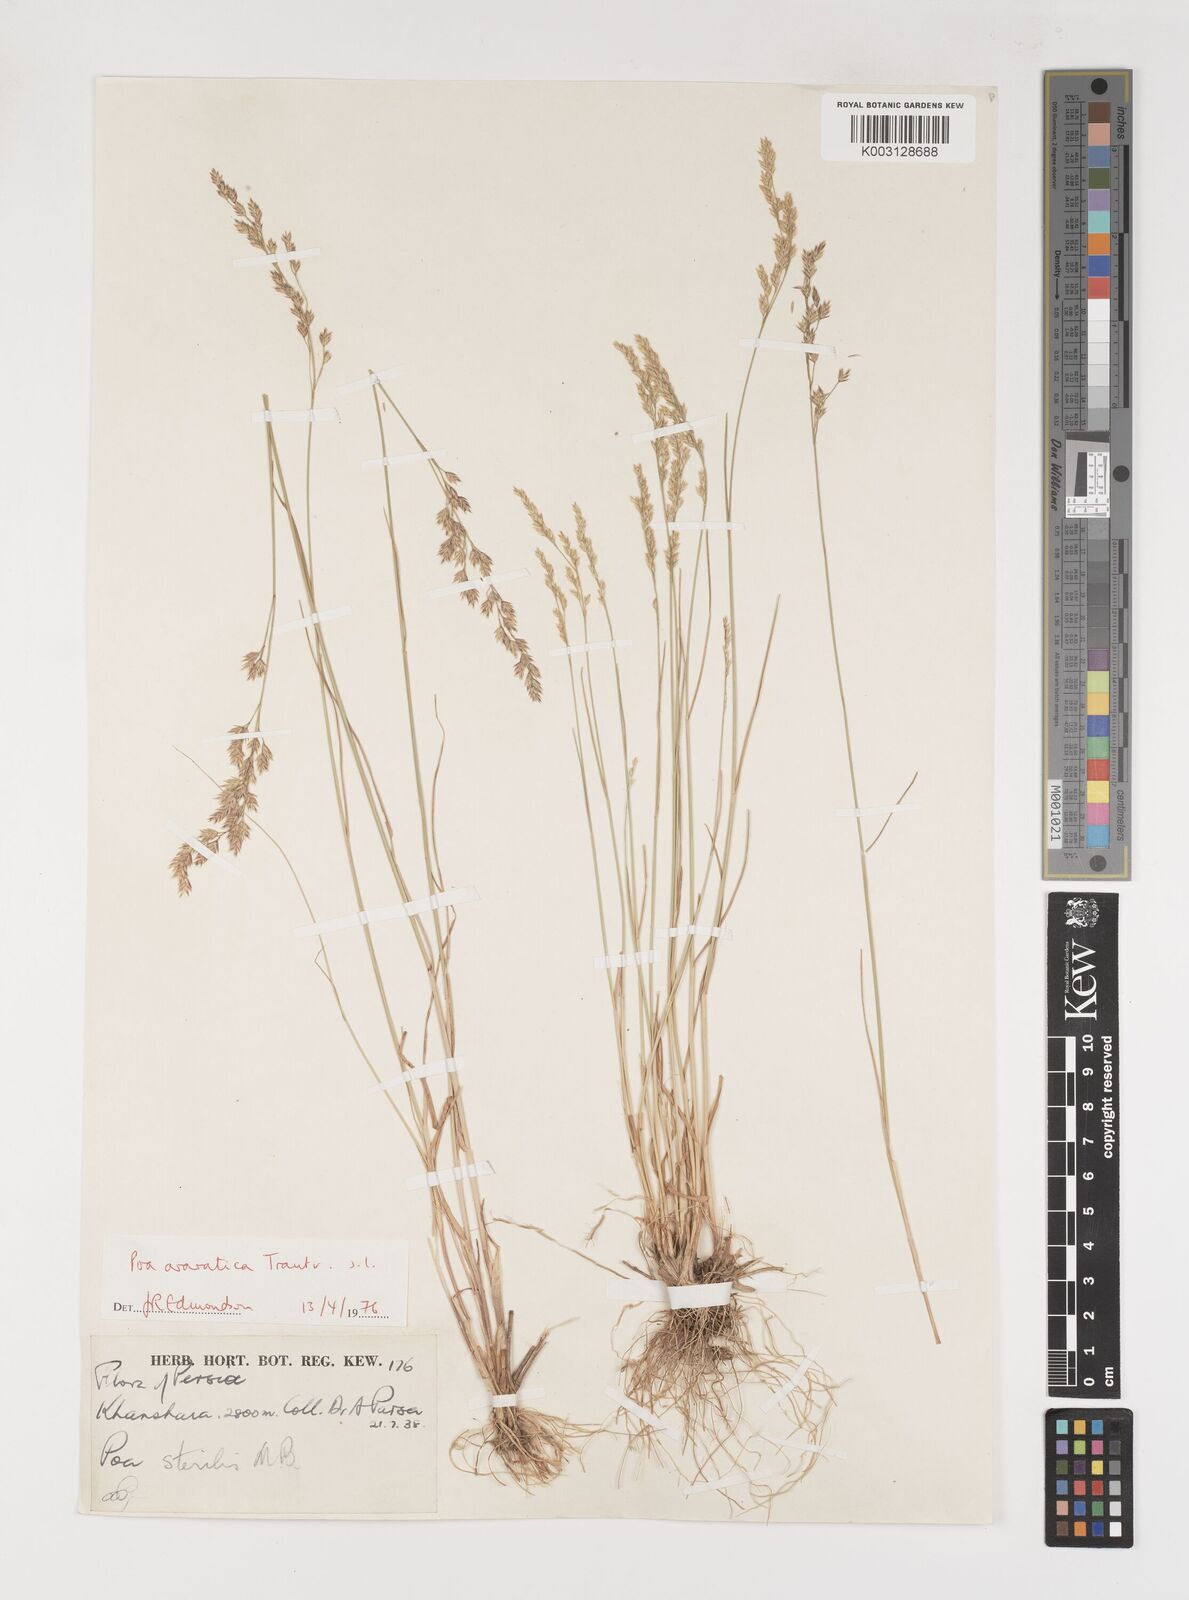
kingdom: Plantae
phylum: Tracheophyta
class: Liliopsida
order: Poales
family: Poaceae
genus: Poa
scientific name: Poa araratica
